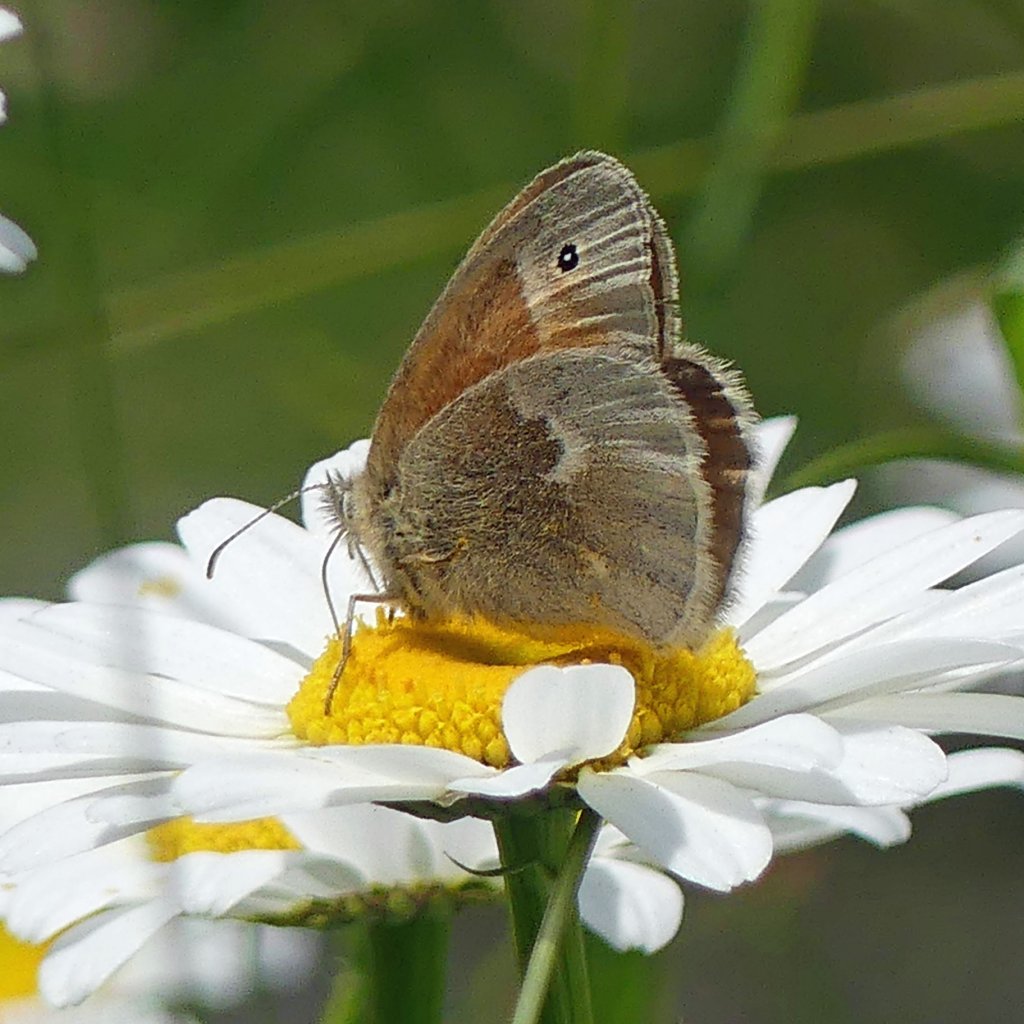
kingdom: Animalia
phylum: Arthropoda
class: Insecta
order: Lepidoptera
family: Nymphalidae
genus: Coenonympha
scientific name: Coenonympha tullia
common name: Large Heath
